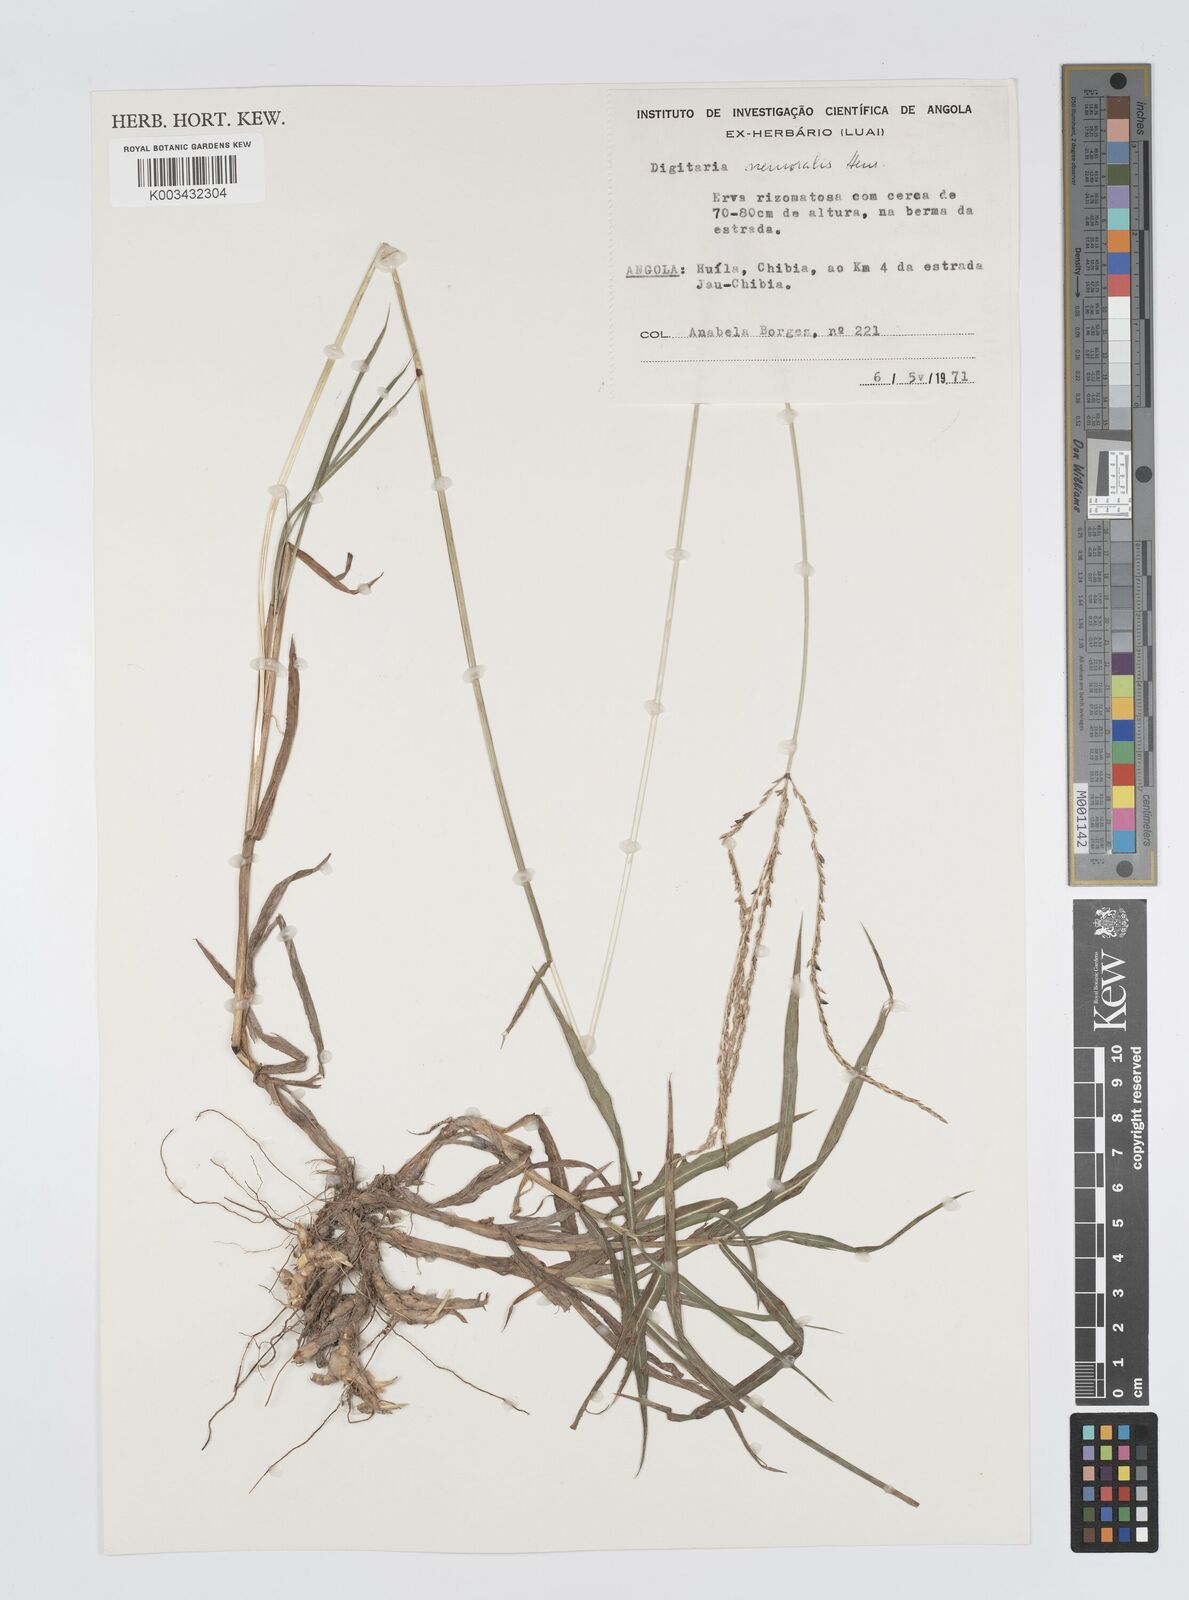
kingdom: Plantae
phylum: Tracheophyta
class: Liliopsida
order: Poales
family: Poaceae
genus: Digitaria
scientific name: Digitaria seriata
